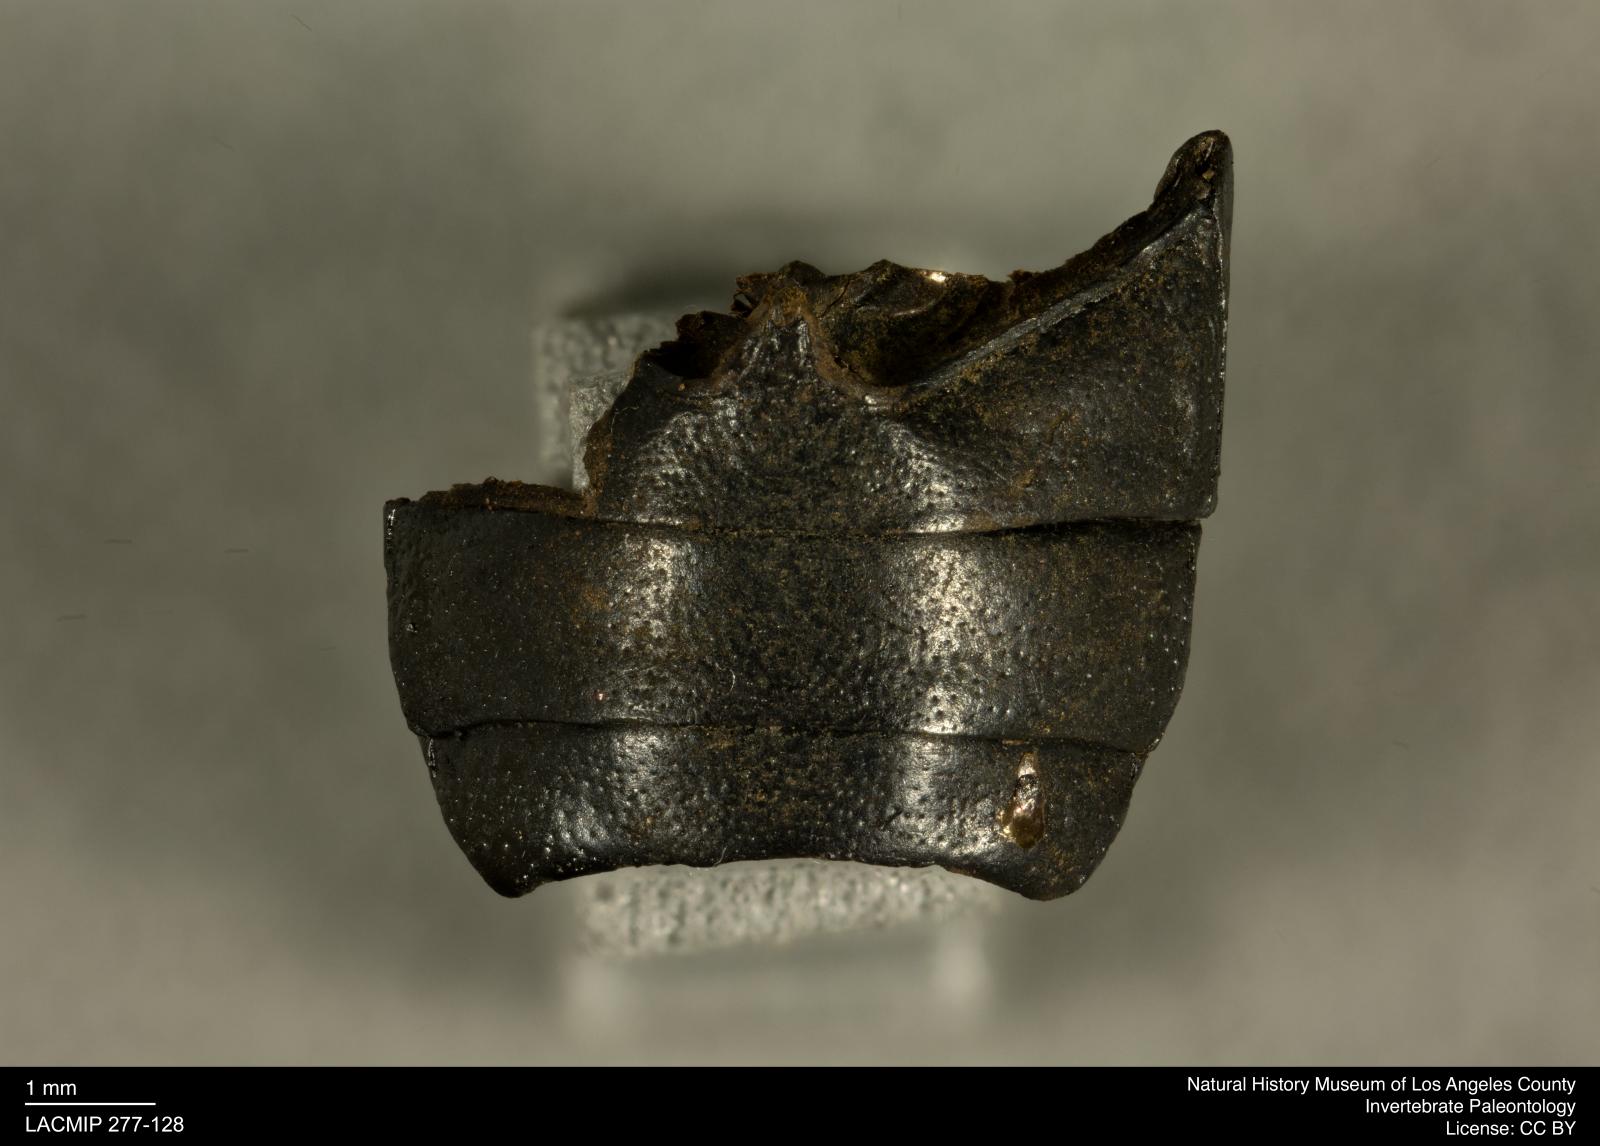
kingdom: Animalia
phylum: Arthropoda
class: Insecta
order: Coleoptera
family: Tenebrionidae
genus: Coniontis
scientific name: Coniontis abdominalis
